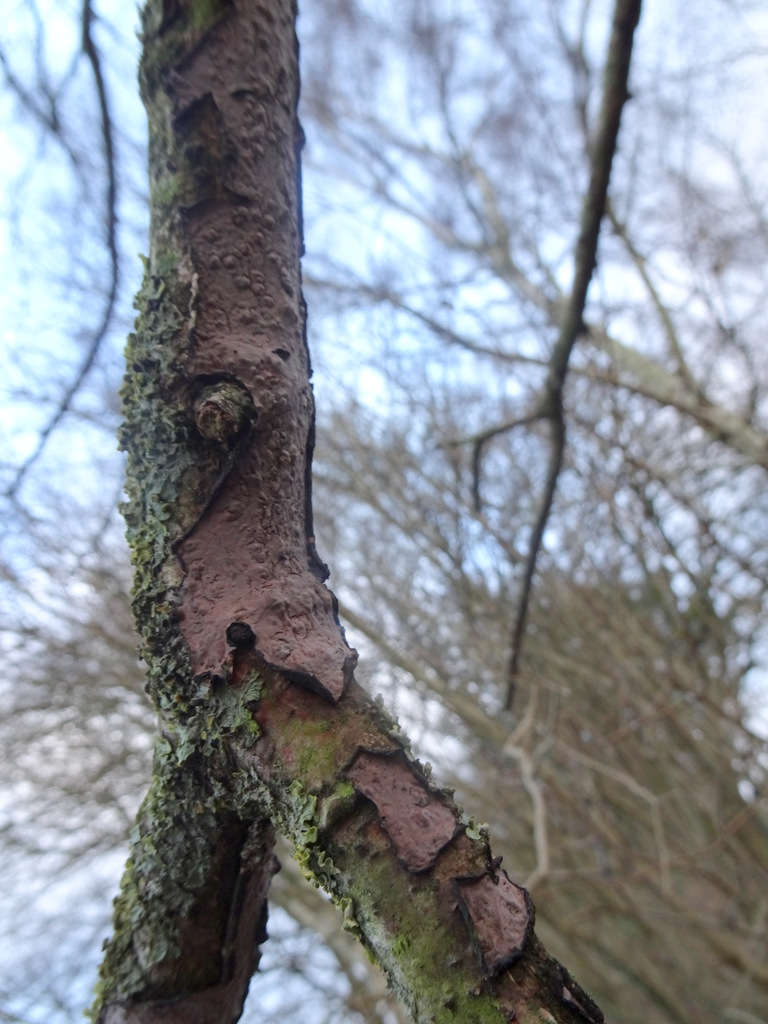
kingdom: Fungi
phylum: Basidiomycota
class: Agaricomycetes
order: Russulales
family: Peniophoraceae
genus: Peniophora
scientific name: Peniophora quercina
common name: ege-voksskind
